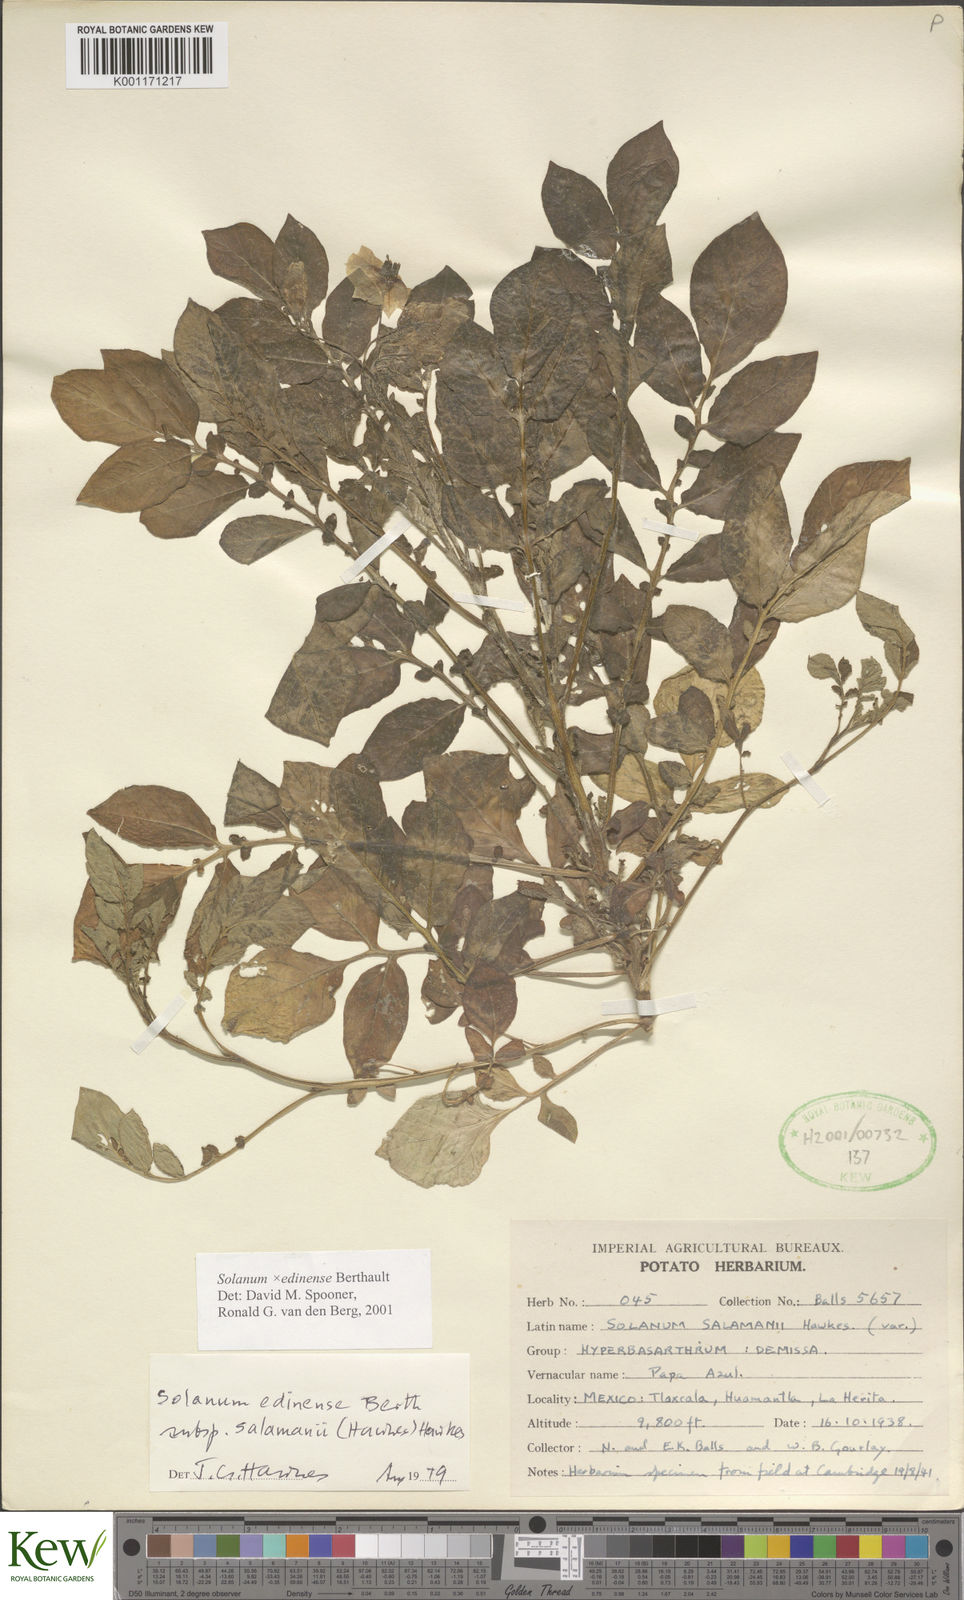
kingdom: Plantae
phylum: Tracheophyta
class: Magnoliopsida
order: Solanales
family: Solanaceae
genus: Solanum
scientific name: Solanum edinense
